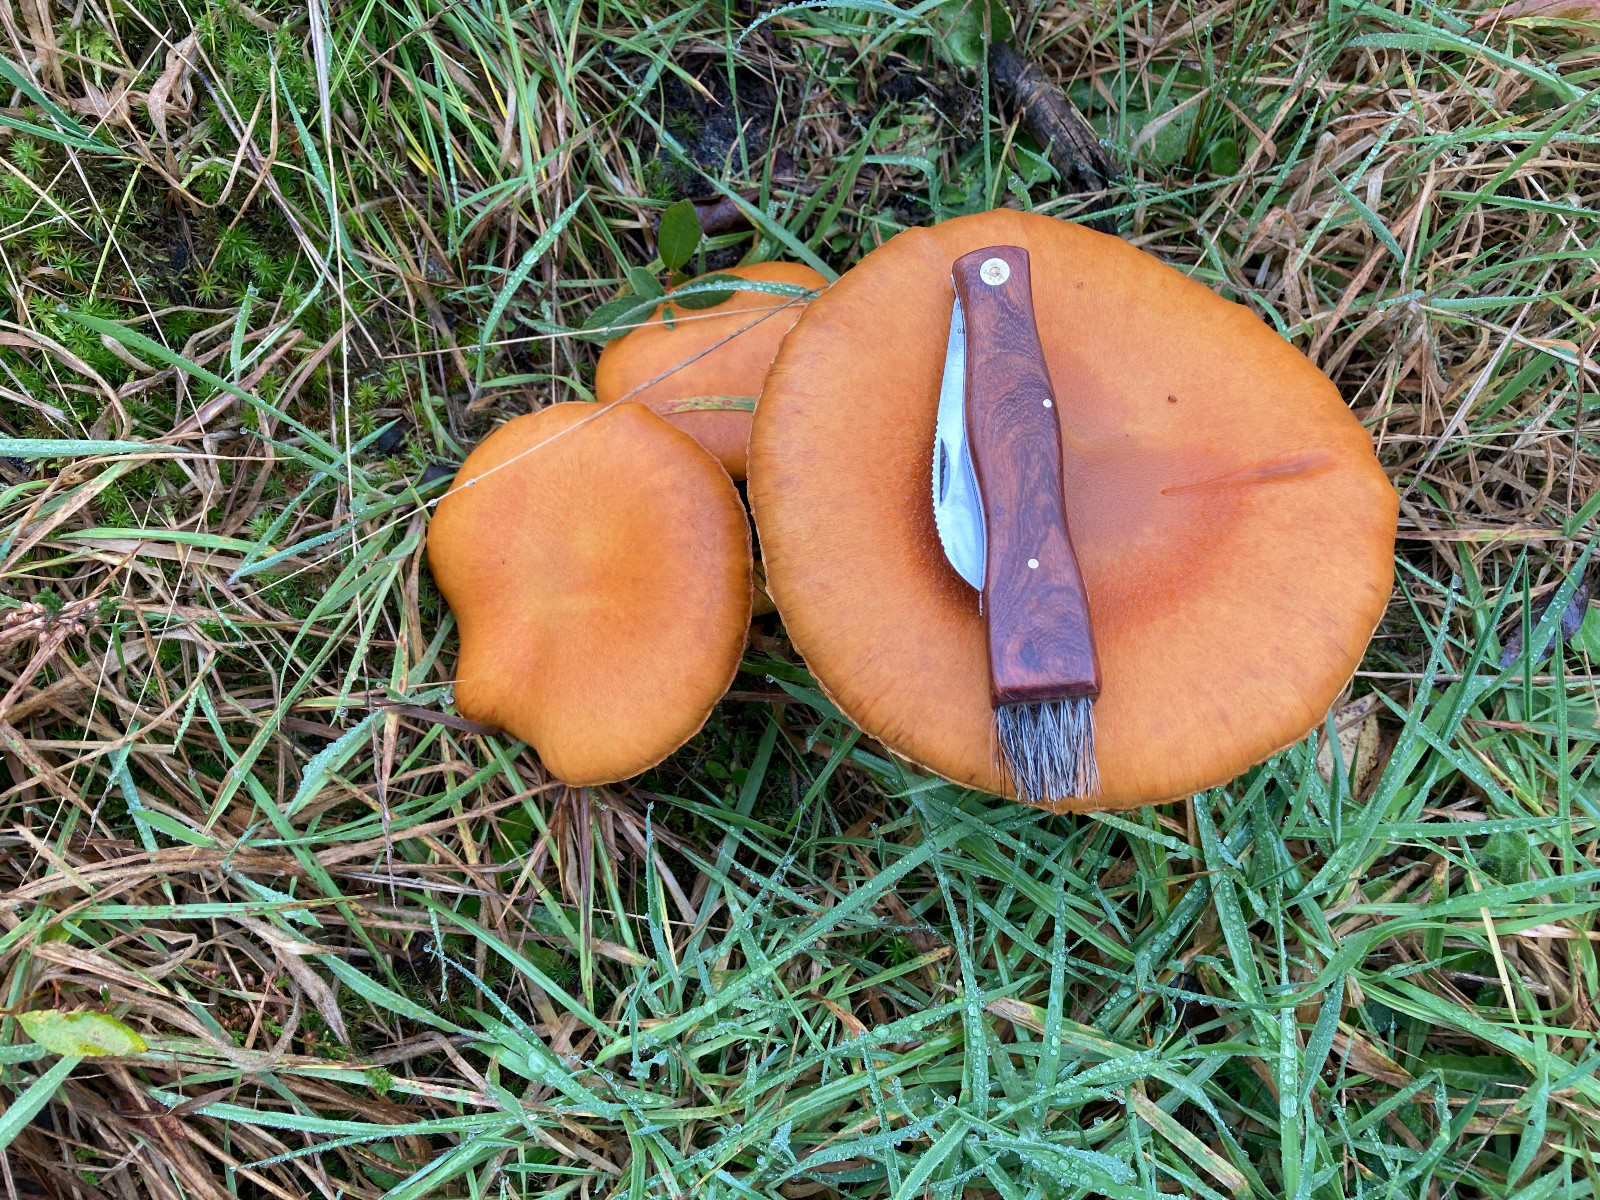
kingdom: Fungi
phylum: Basidiomycota
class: Agaricomycetes
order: Agaricales
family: Hymenogastraceae
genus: Gymnopilus
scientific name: Gymnopilus spectabilis
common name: fibret flammehat
